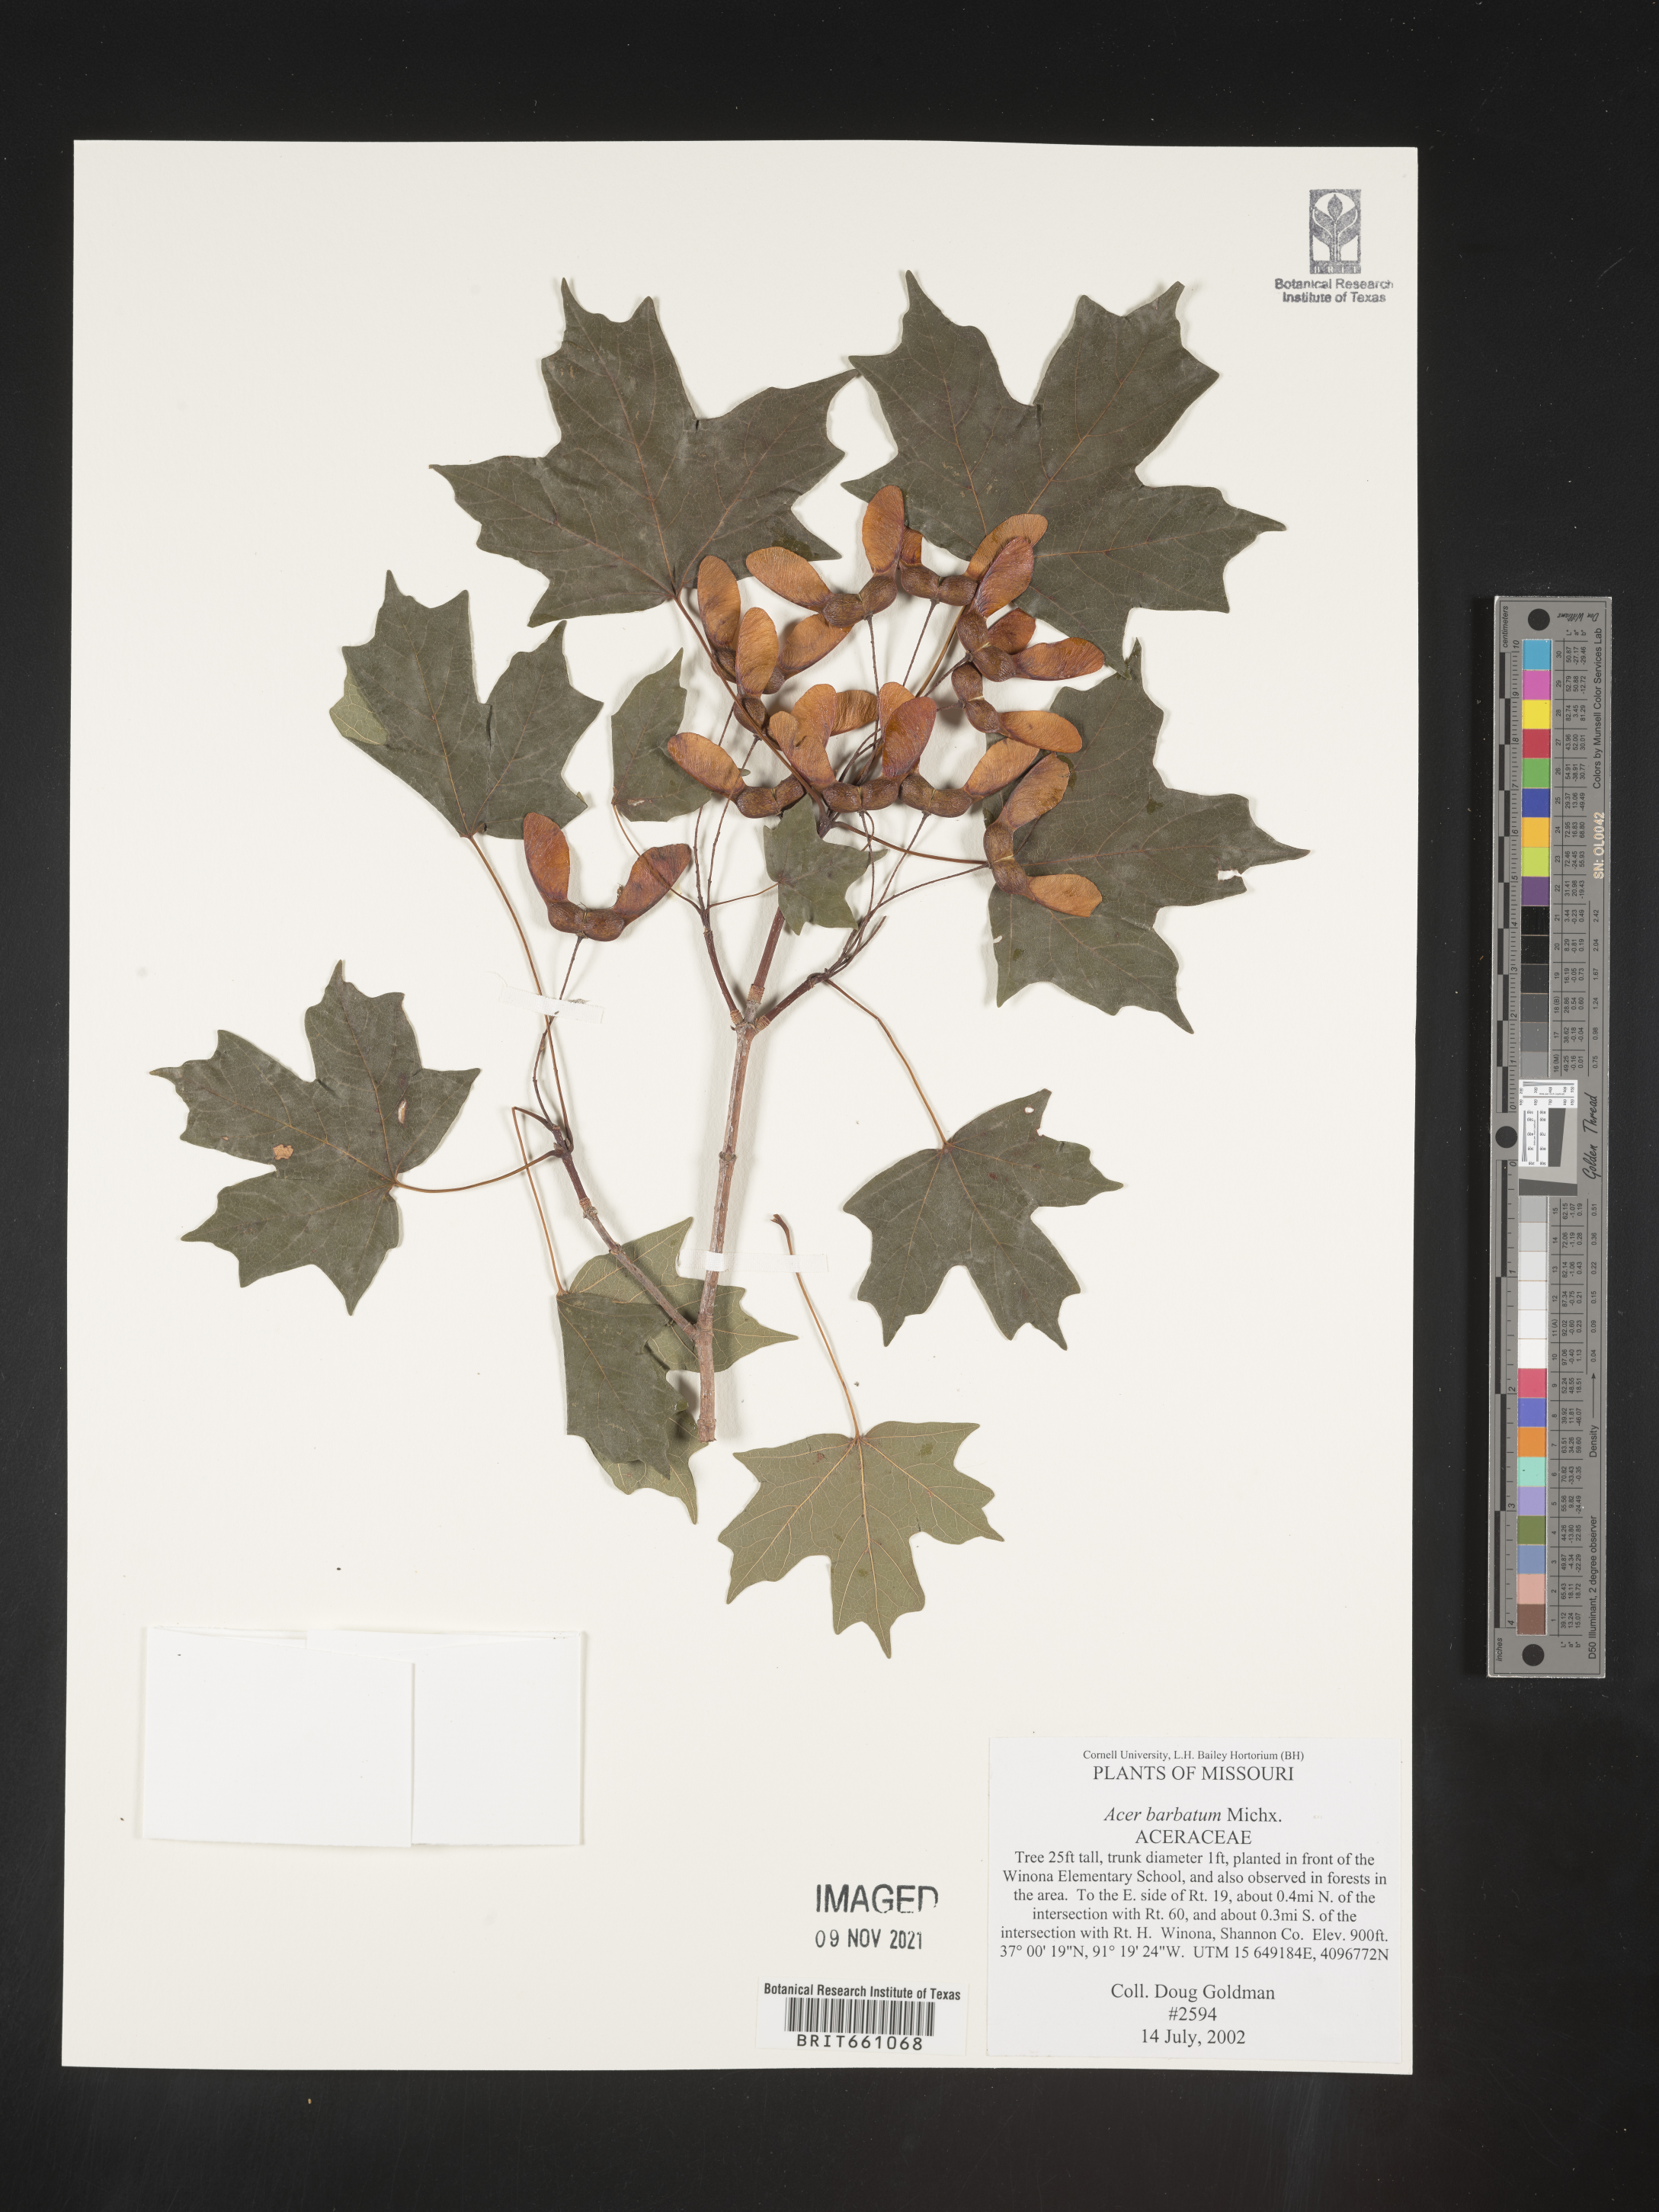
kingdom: Plantae
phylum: Tracheophyta
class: Magnoliopsida
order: Sapindales
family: Sapindaceae
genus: Acer
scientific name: Acer barbatum
